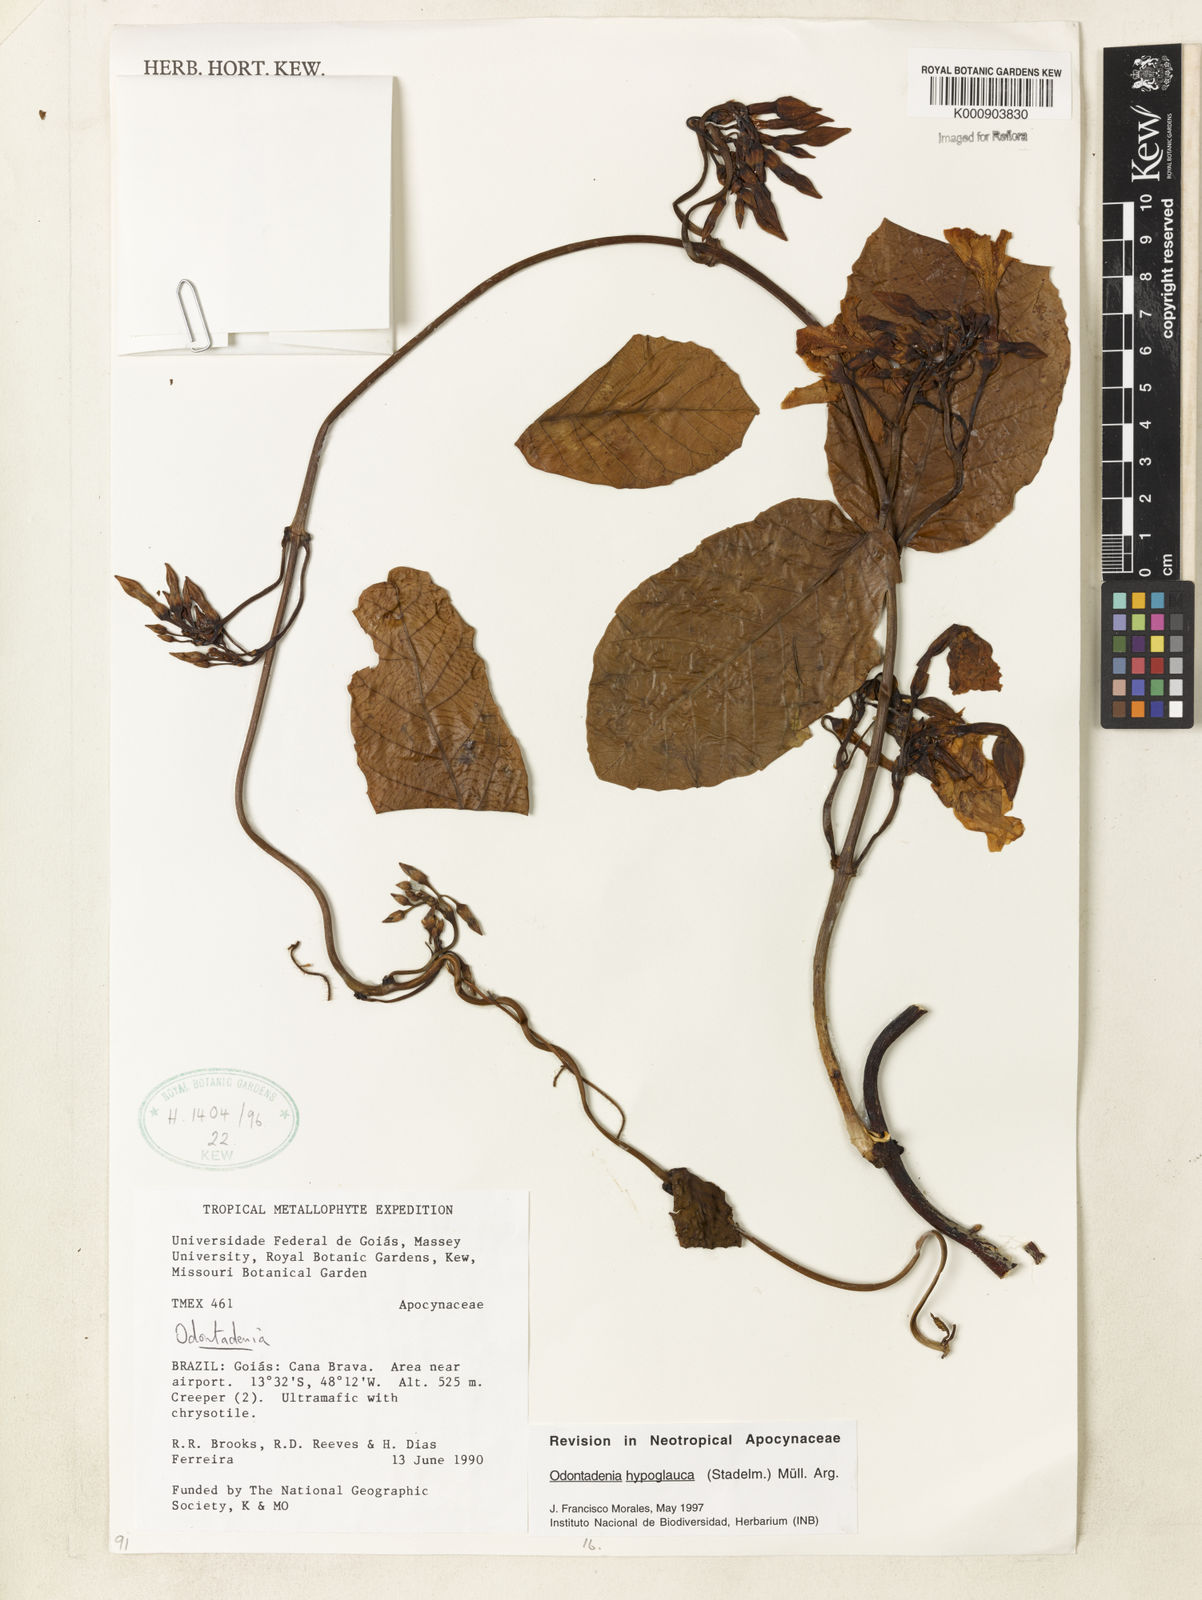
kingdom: Plantae
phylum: Tracheophyta
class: Magnoliopsida
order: Gentianales
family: Apocynaceae
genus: Odontadenia
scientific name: Odontadenia
